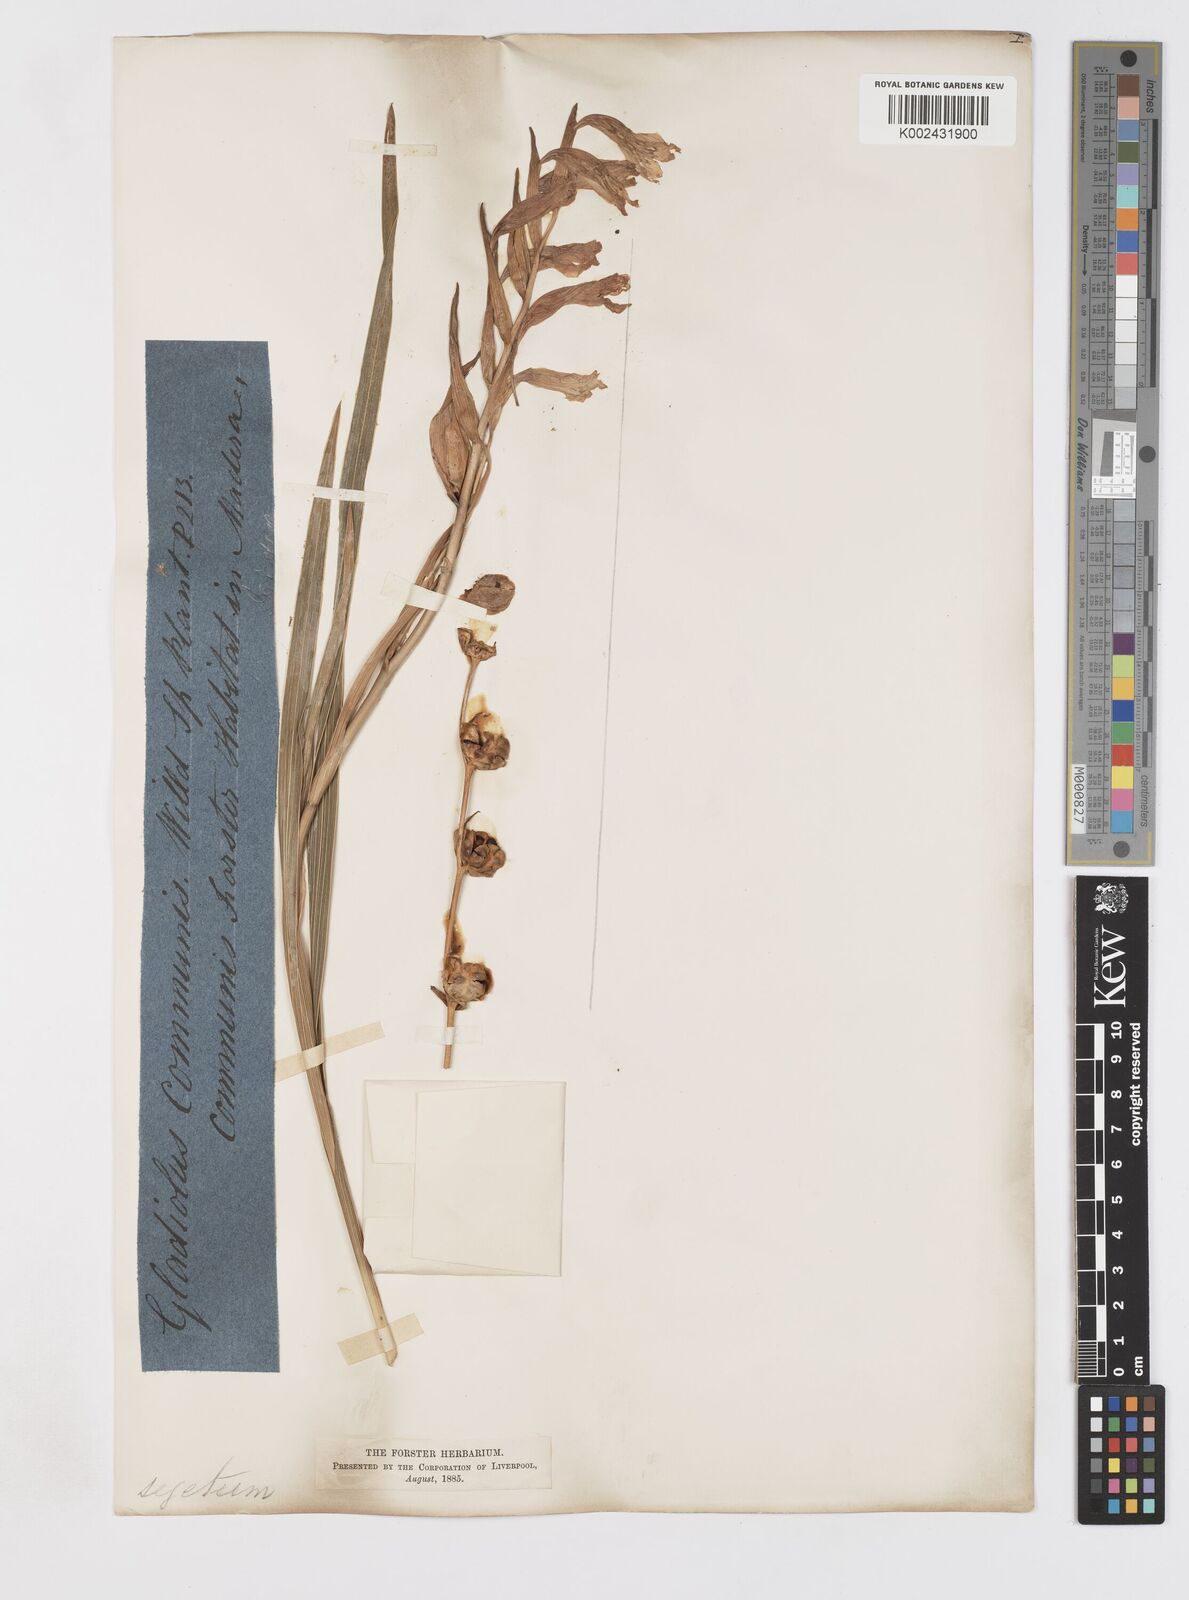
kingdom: Plantae
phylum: Tracheophyta
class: Liliopsida
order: Asparagales
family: Iridaceae
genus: Gladiolus
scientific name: Gladiolus italicus
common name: Field gladiolus
